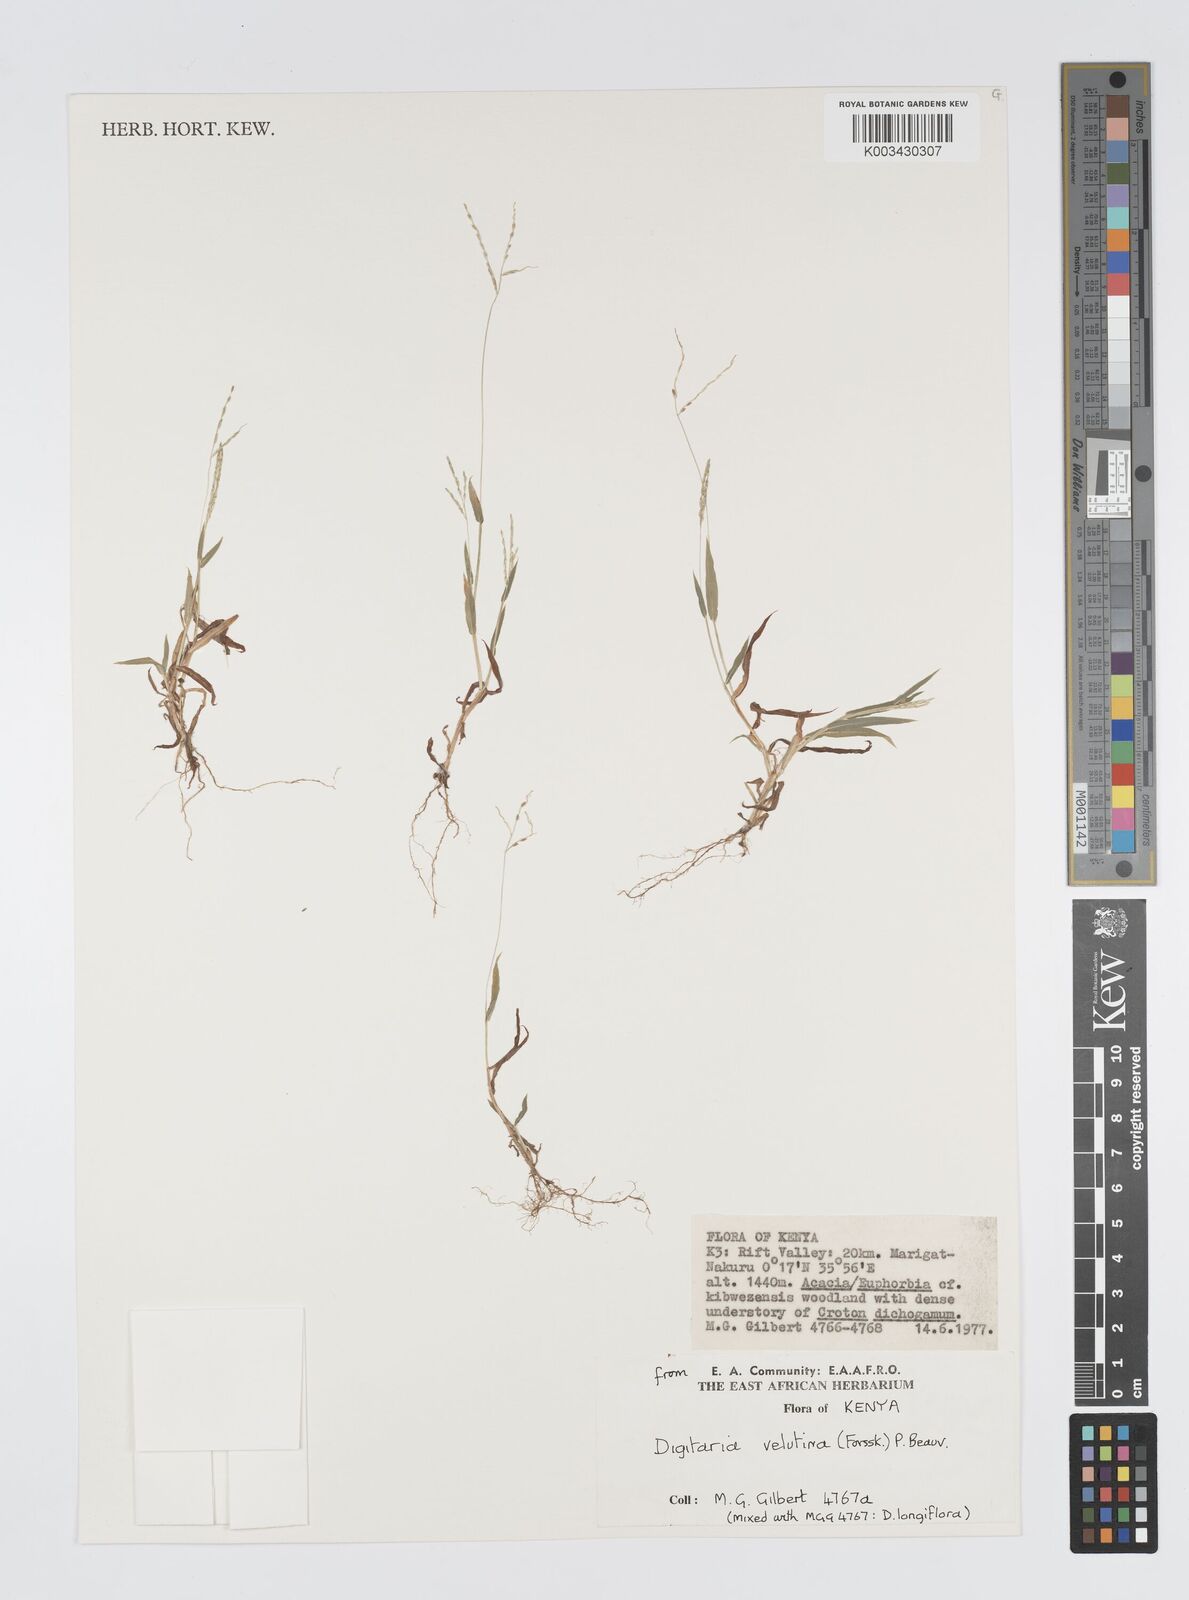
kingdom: Plantae
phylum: Tracheophyta
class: Liliopsida
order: Poales
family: Poaceae
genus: Digitaria
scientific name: Digitaria velutina
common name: Long-plume finger grass
